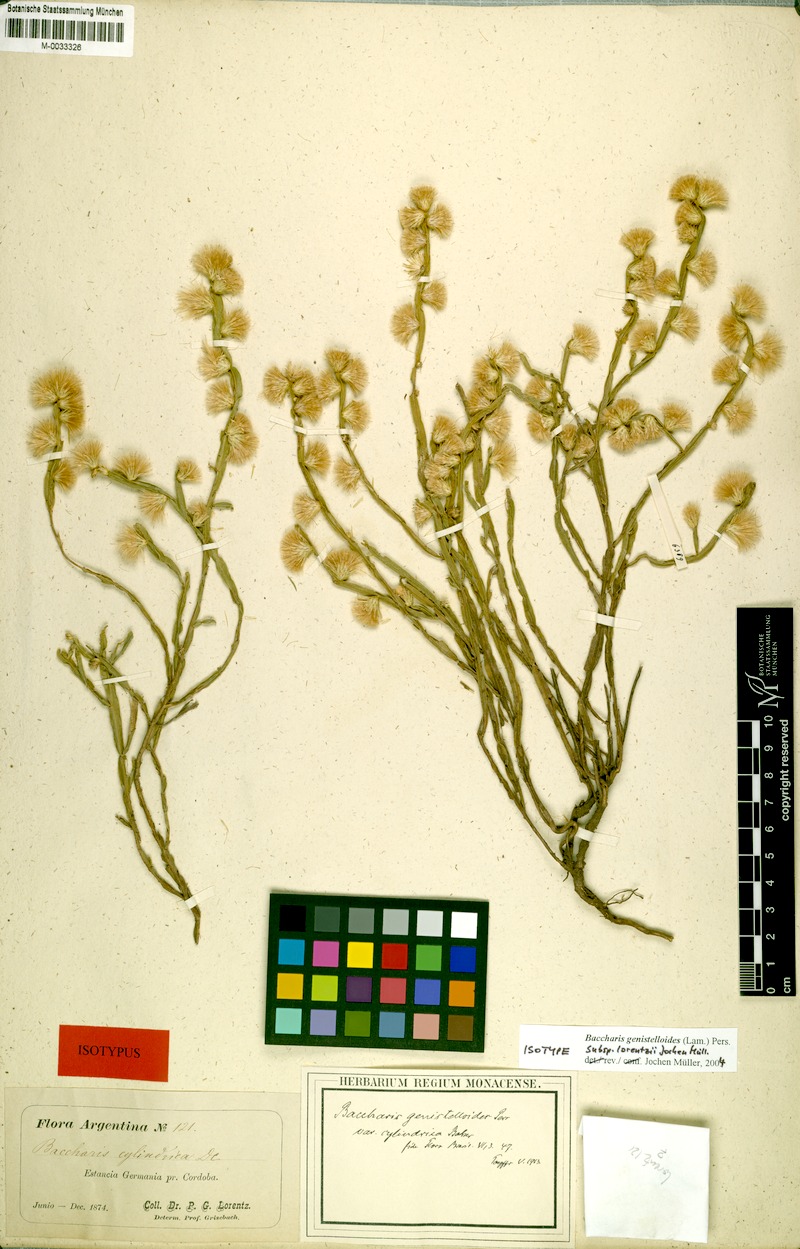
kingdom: Plantae
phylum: Tracheophyta
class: Magnoliopsida
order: Asterales
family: Asteraceae
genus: Baccharis
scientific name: Baccharis lorentzii
